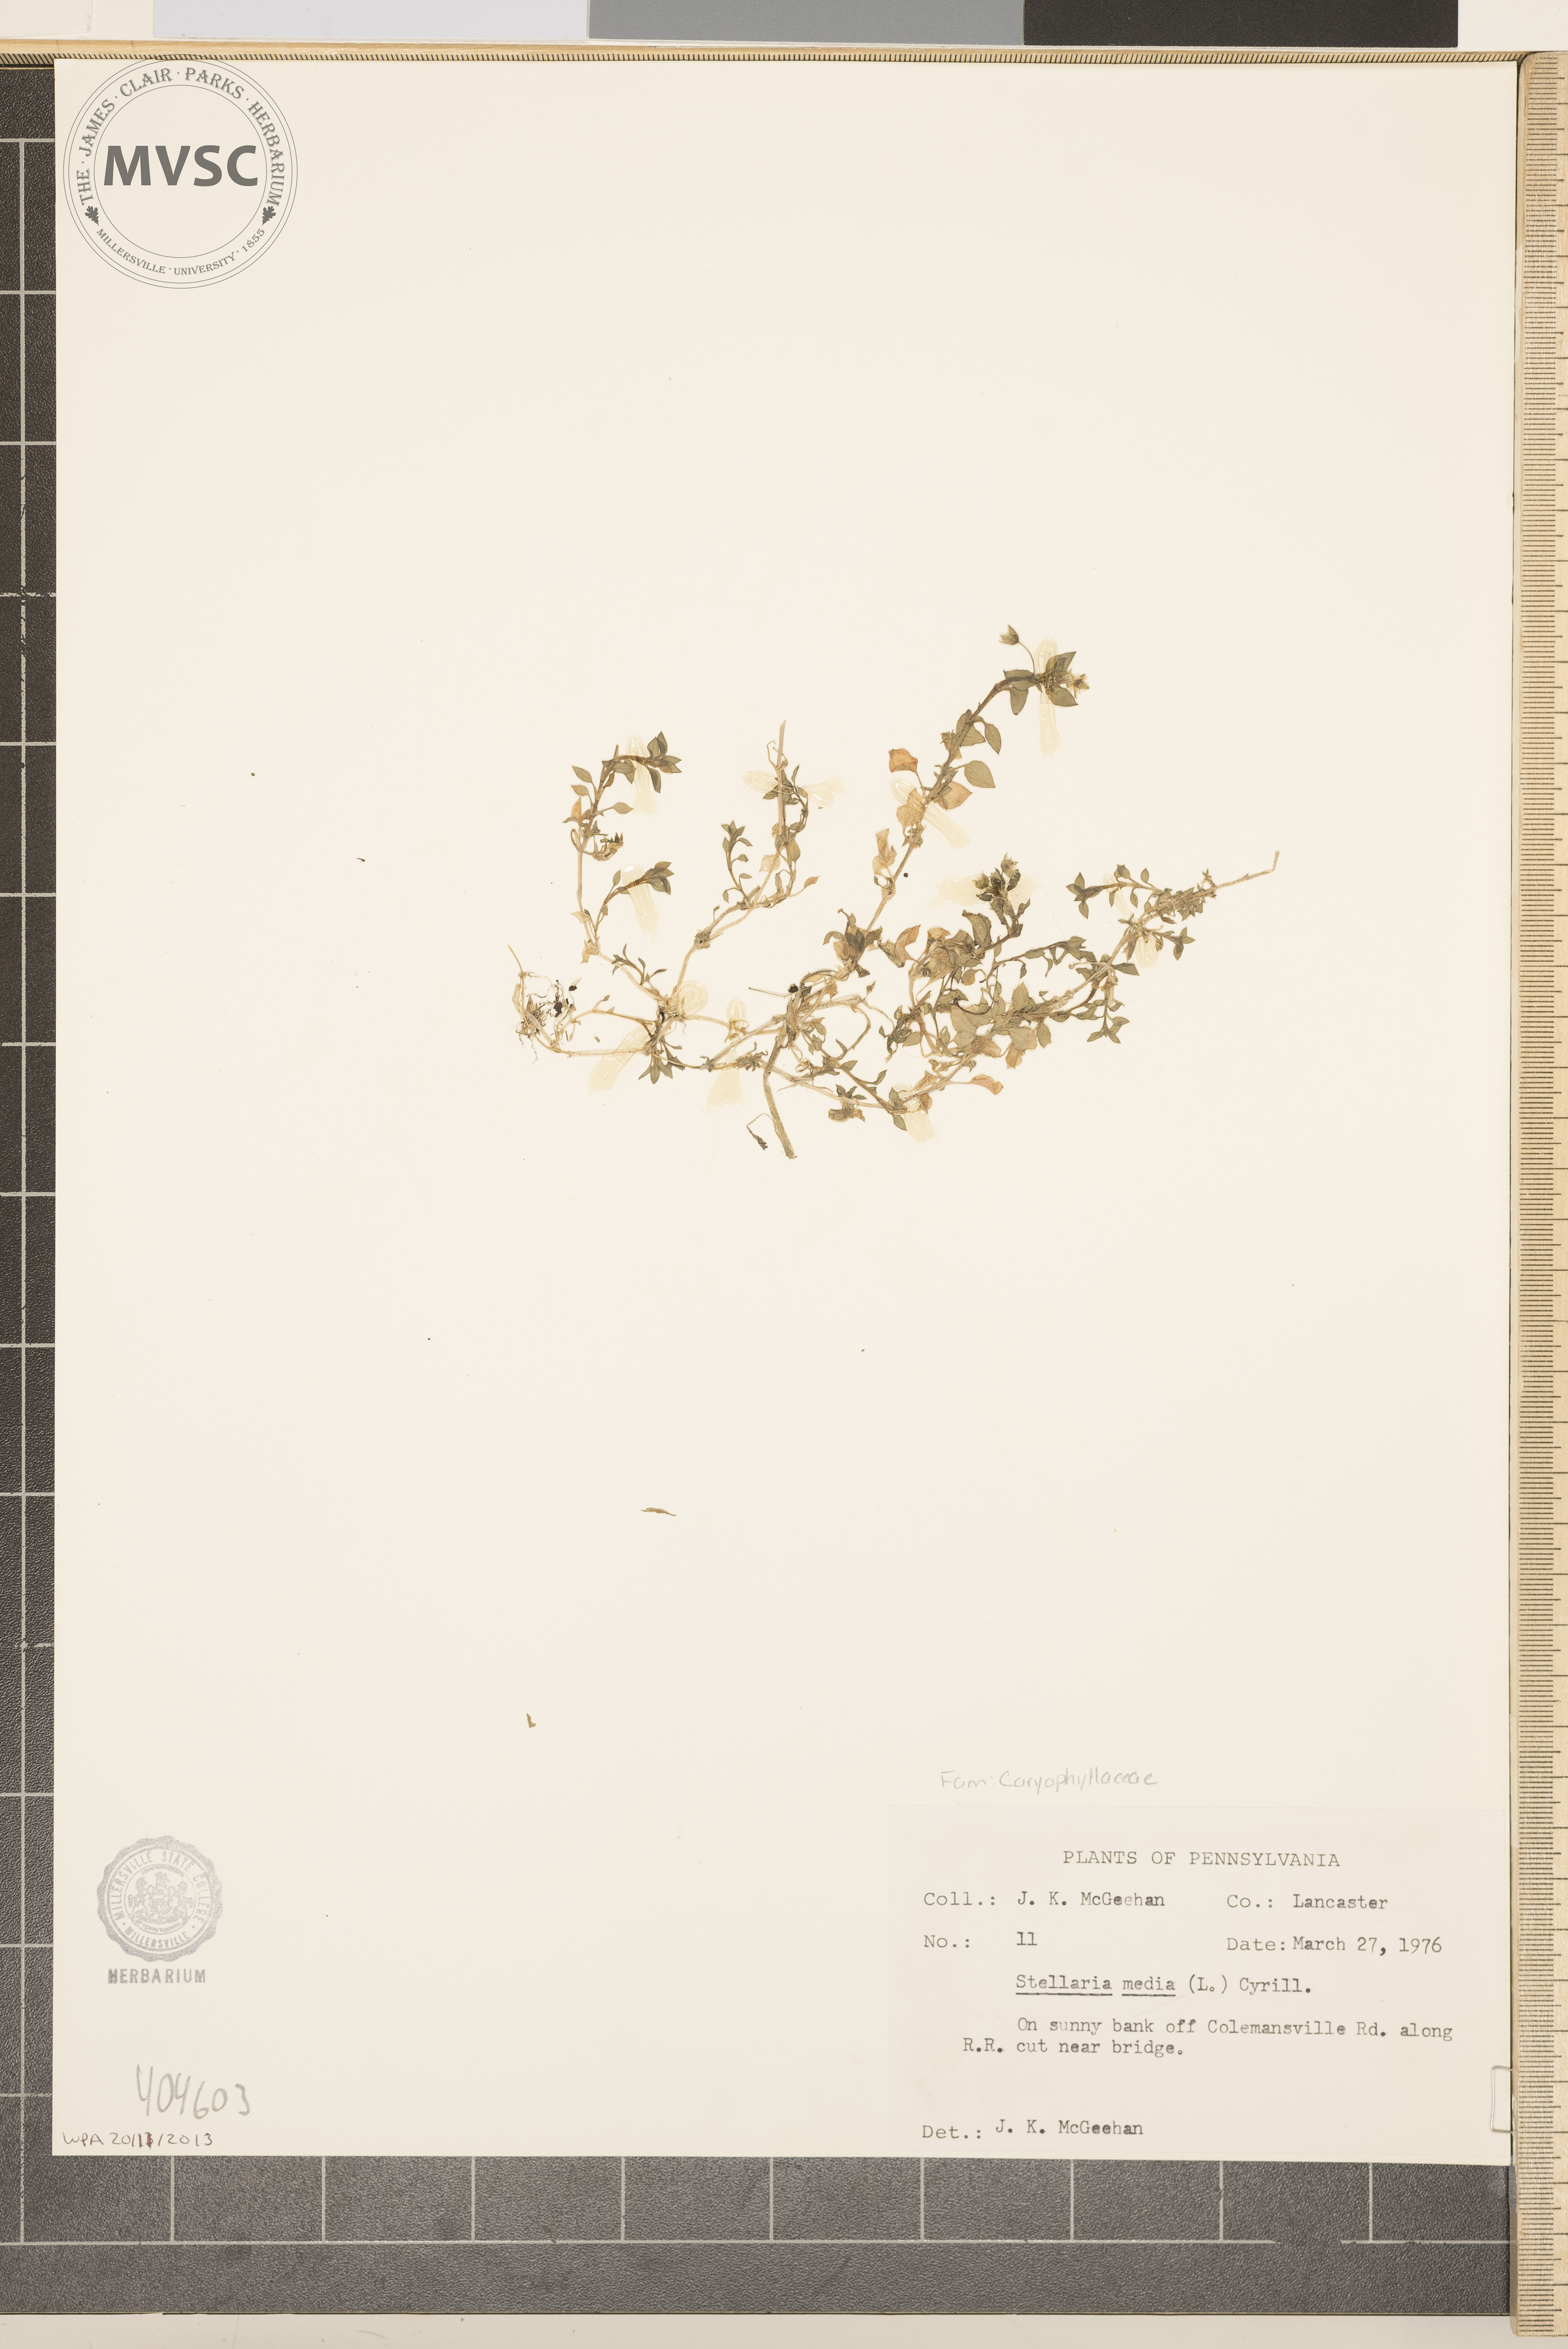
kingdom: Plantae
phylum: Tracheophyta
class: Magnoliopsida
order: Caryophyllales
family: Caryophyllaceae
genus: Stellaria
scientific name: Stellaria media
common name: Common chickweed
